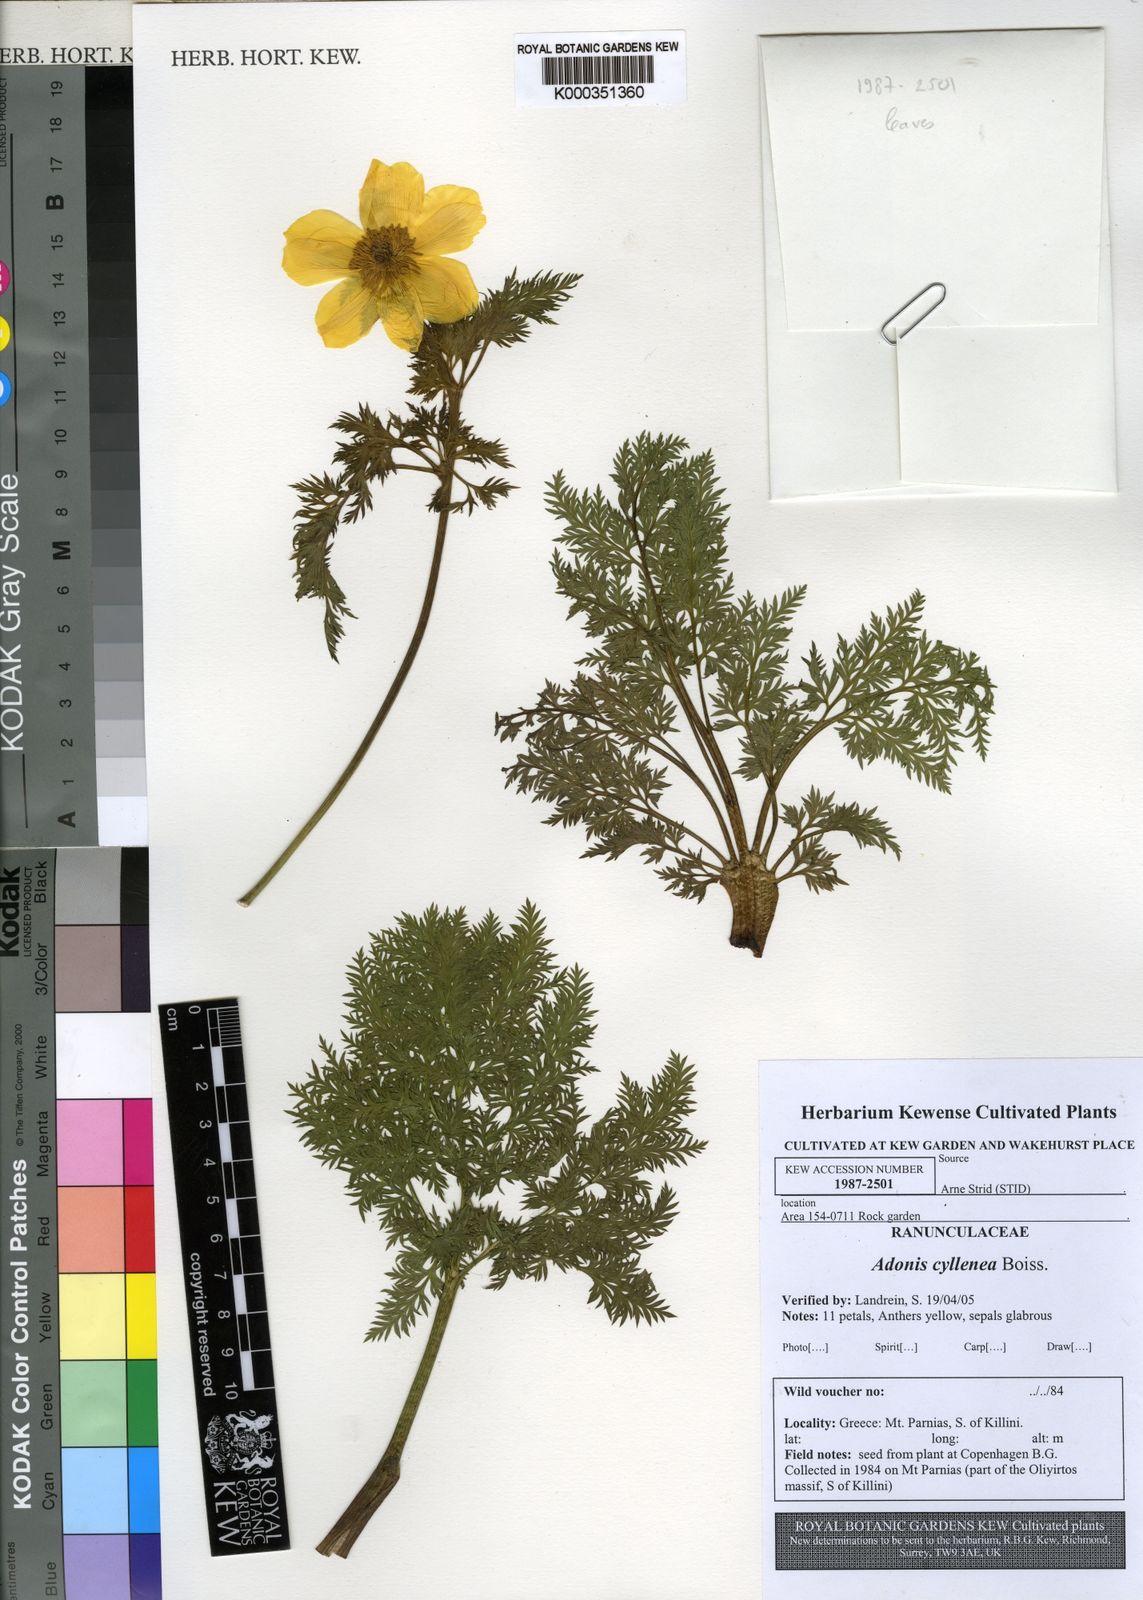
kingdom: Plantae
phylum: Tracheophyta
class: Magnoliopsida
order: Ranunculales
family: Ranunculaceae
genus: Adonis
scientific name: Adonis cyllenea
